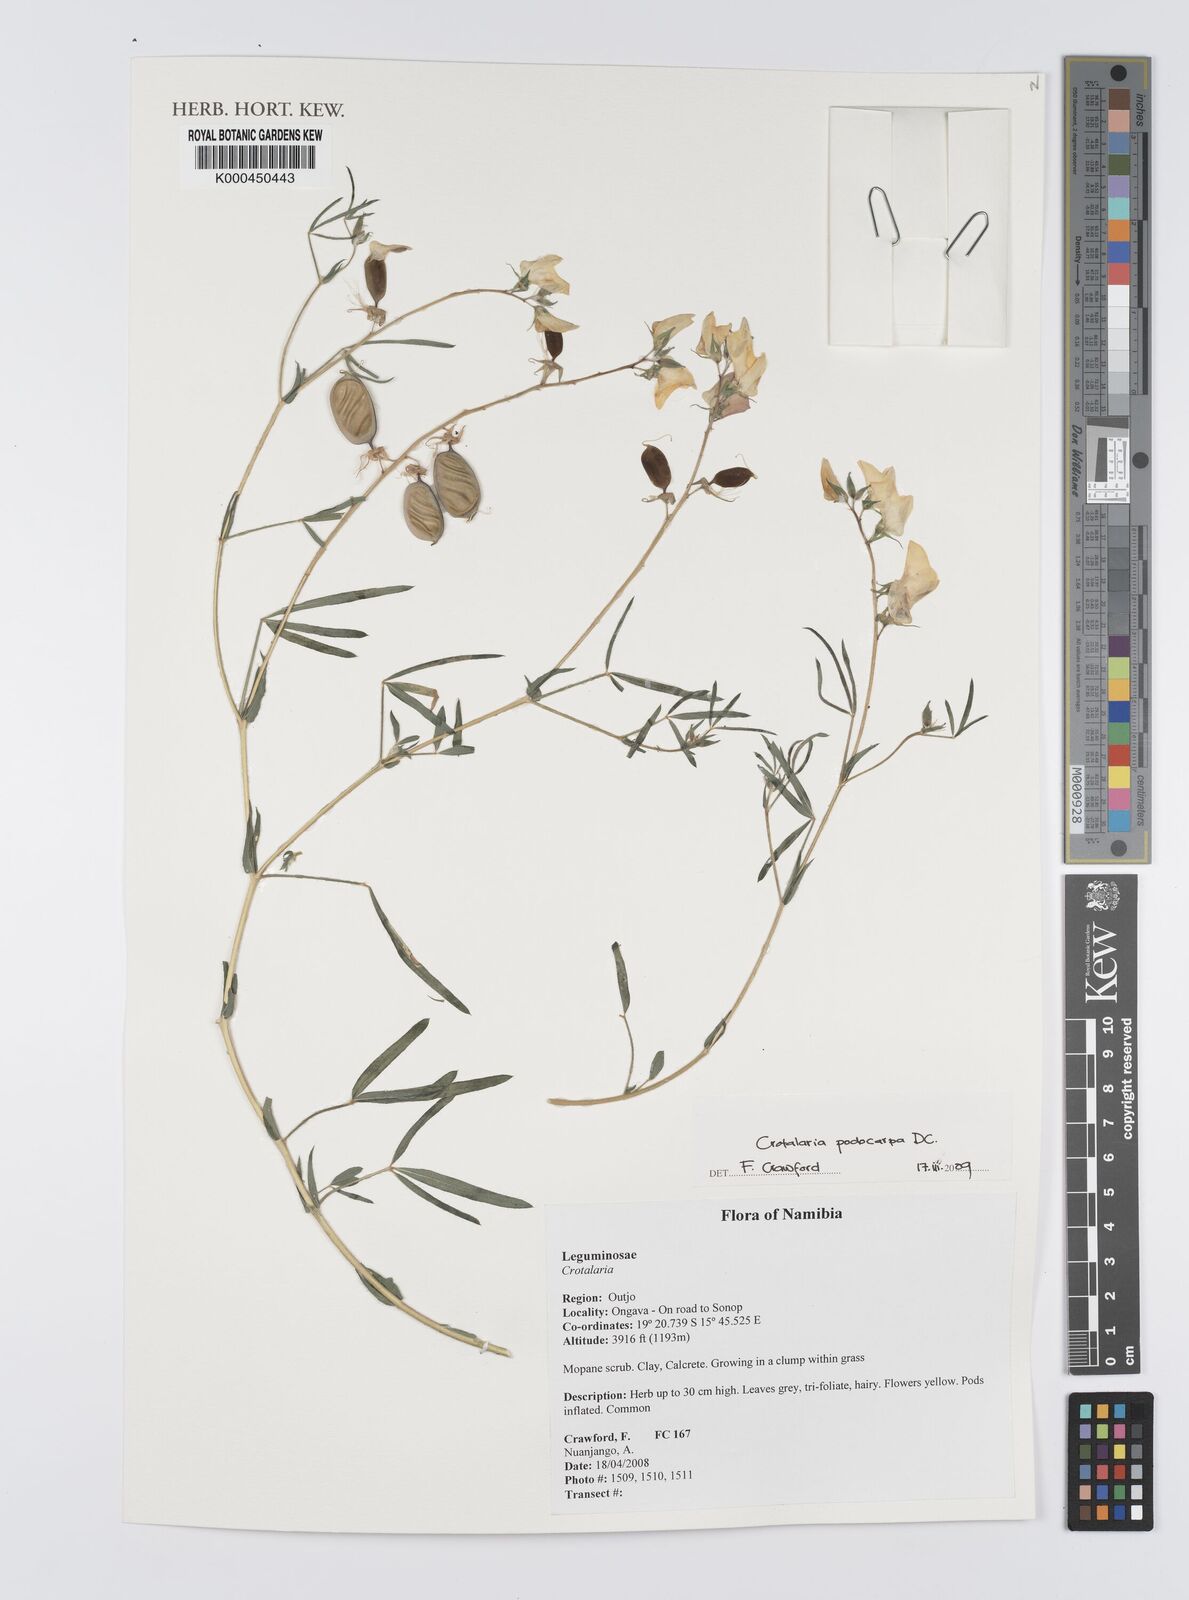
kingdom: Plantae
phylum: Tracheophyta
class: Magnoliopsida
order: Fabales
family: Fabaceae
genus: Crotalaria
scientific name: Crotalaria podocarpa
